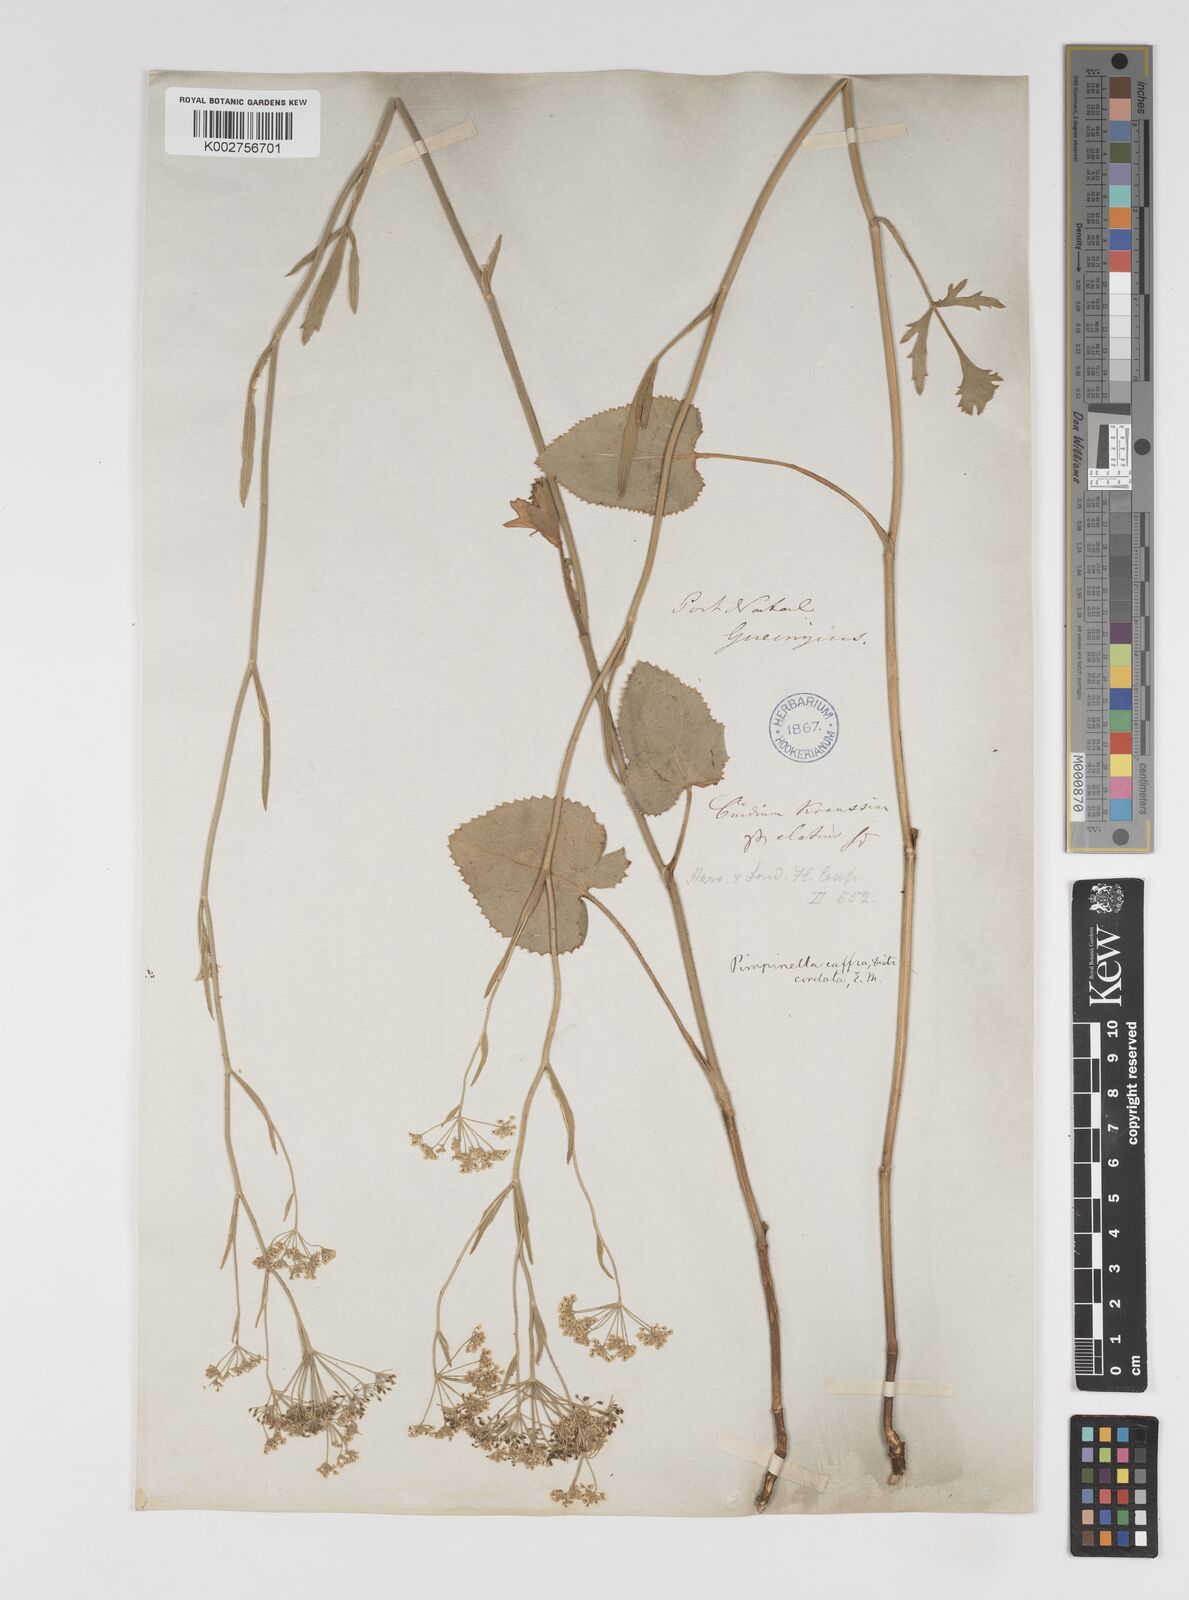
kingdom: Plantae
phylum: Tracheophyta
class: Magnoliopsida
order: Apiales
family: Apiaceae
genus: Pimpinella
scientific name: Pimpinella
